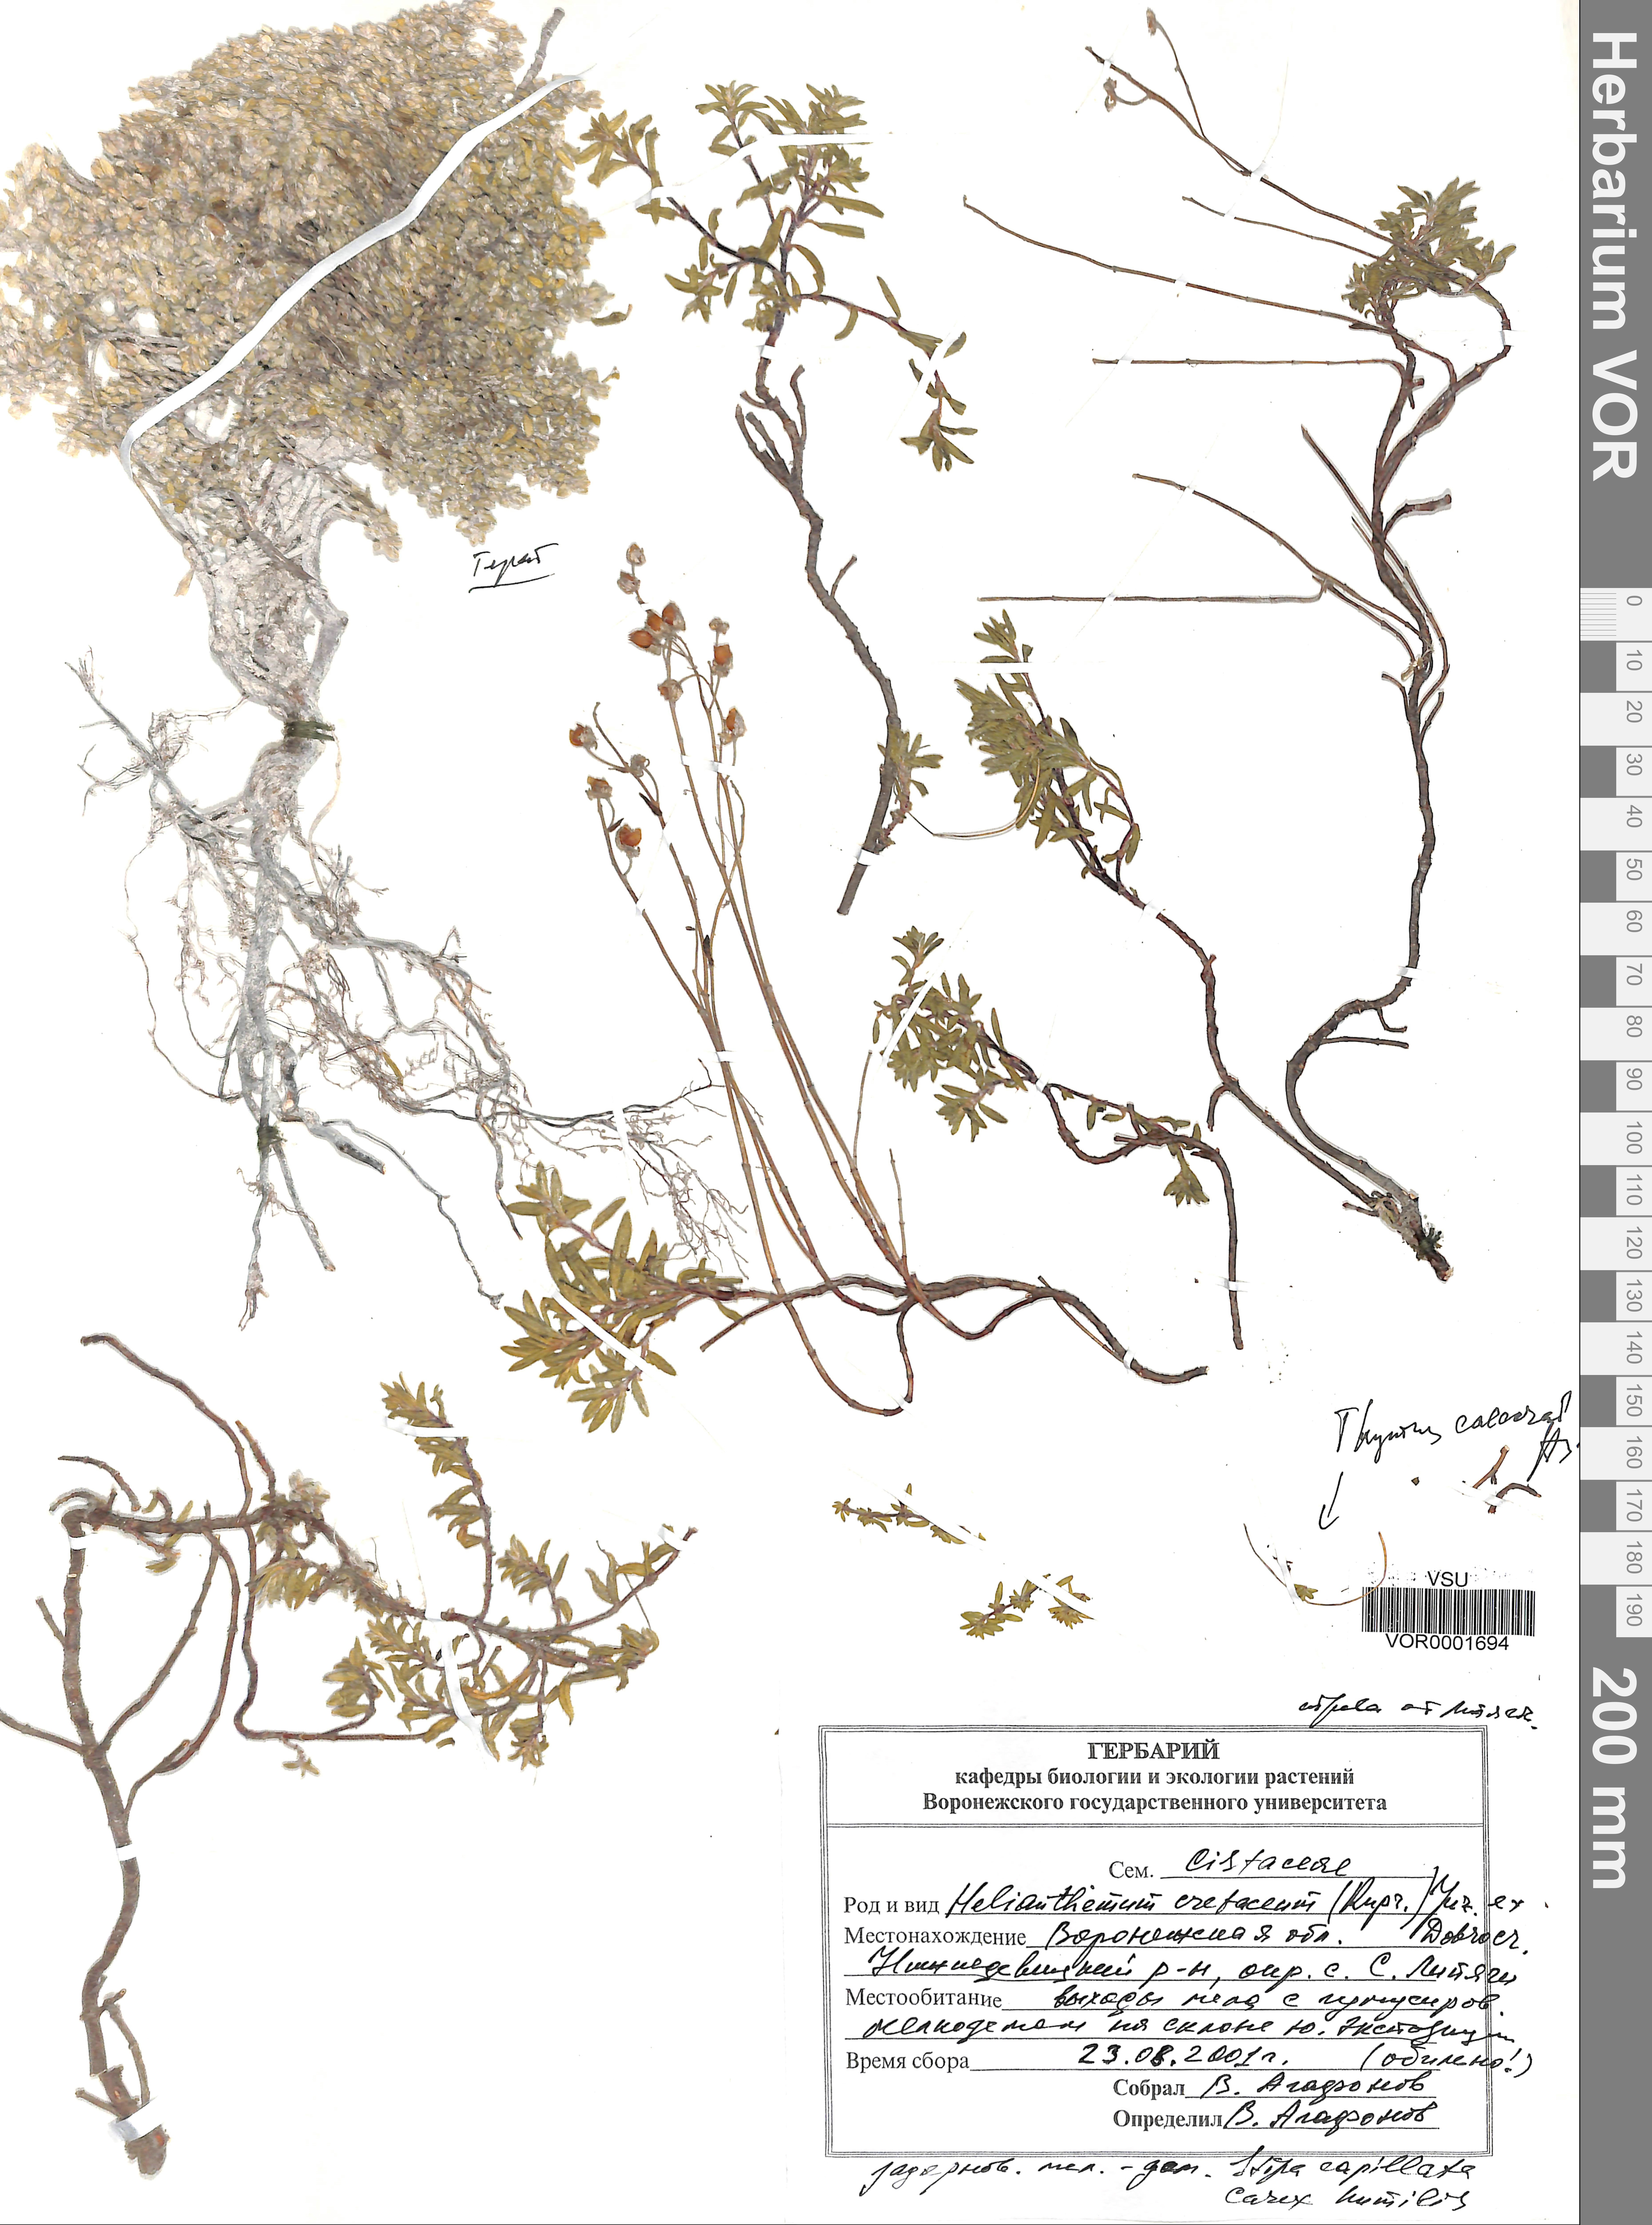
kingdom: Plantae
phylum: Tracheophyta
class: Magnoliopsida
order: Malvales
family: Cistaceae
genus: Helianthemum
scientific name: Helianthemum rupifragum
